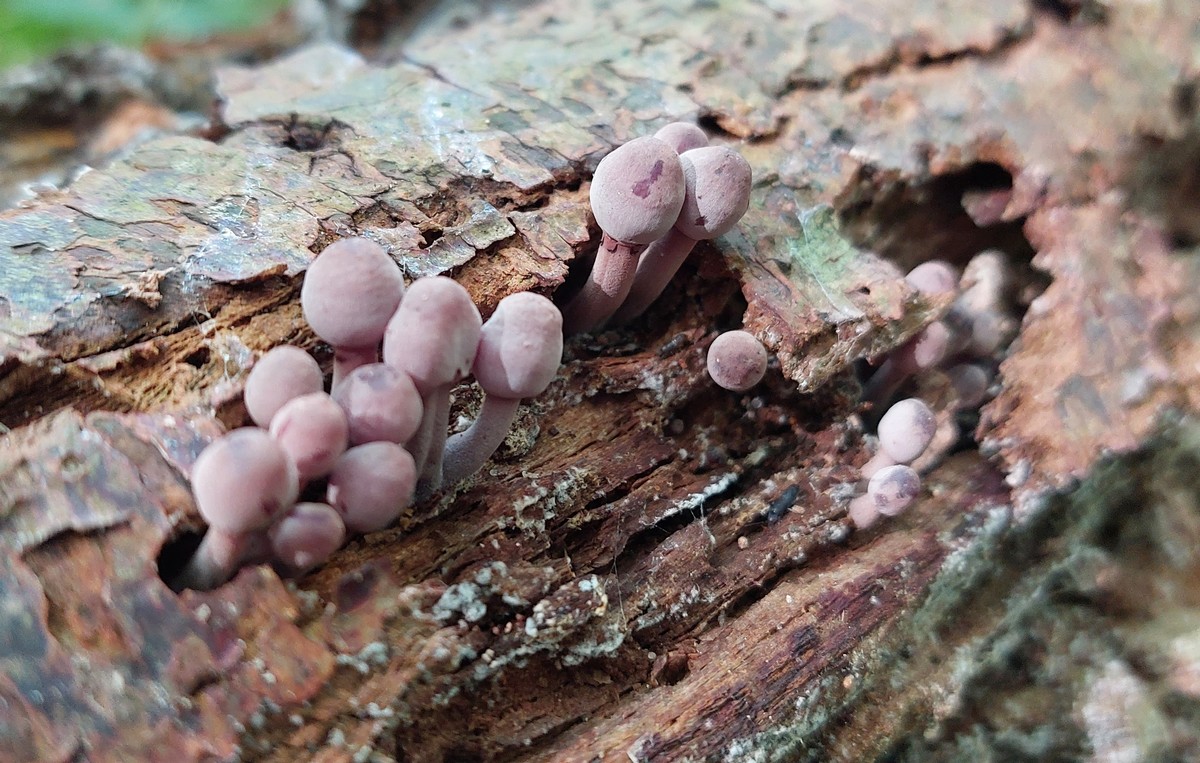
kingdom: Fungi
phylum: Basidiomycota
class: Agaricomycetes
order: Agaricales
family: Mycenaceae
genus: Mycena
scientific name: Mycena haematopus
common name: blødende huesvamp
